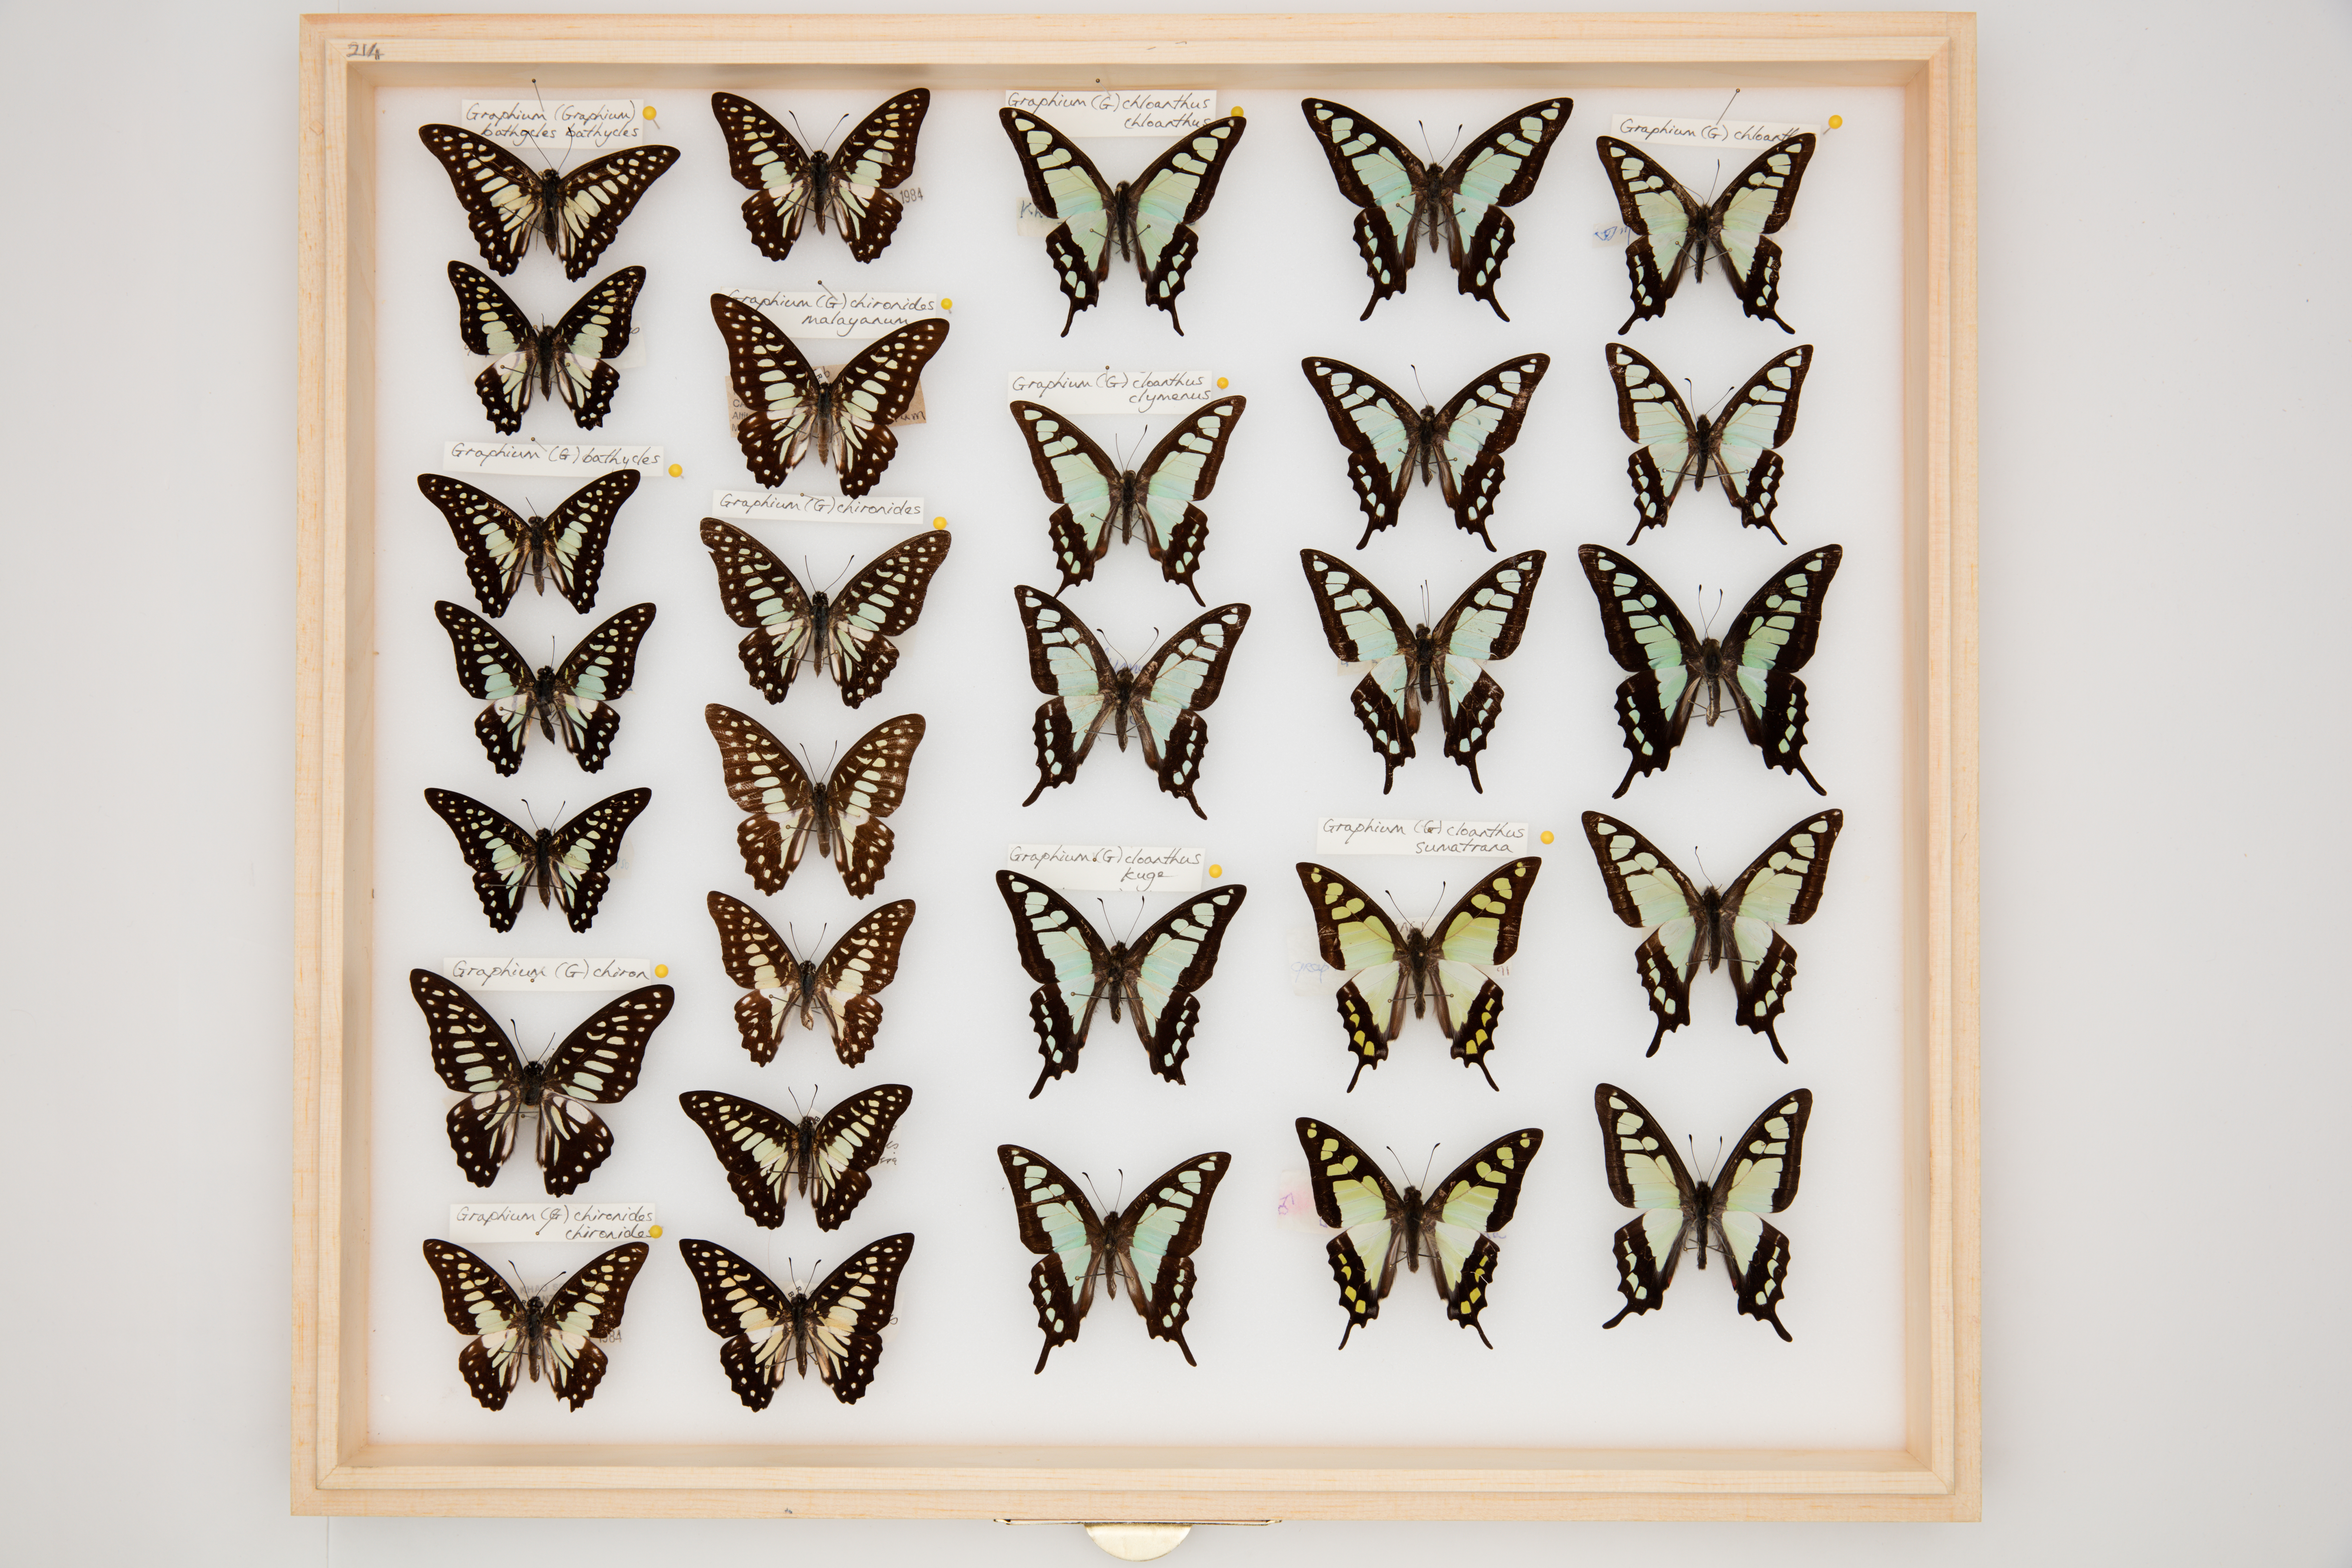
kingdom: Animalia
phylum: Arthropoda
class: Insecta
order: Lepidoptera
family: Papilionidae
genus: Graphium
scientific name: Graphium chironides
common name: Veined jay
